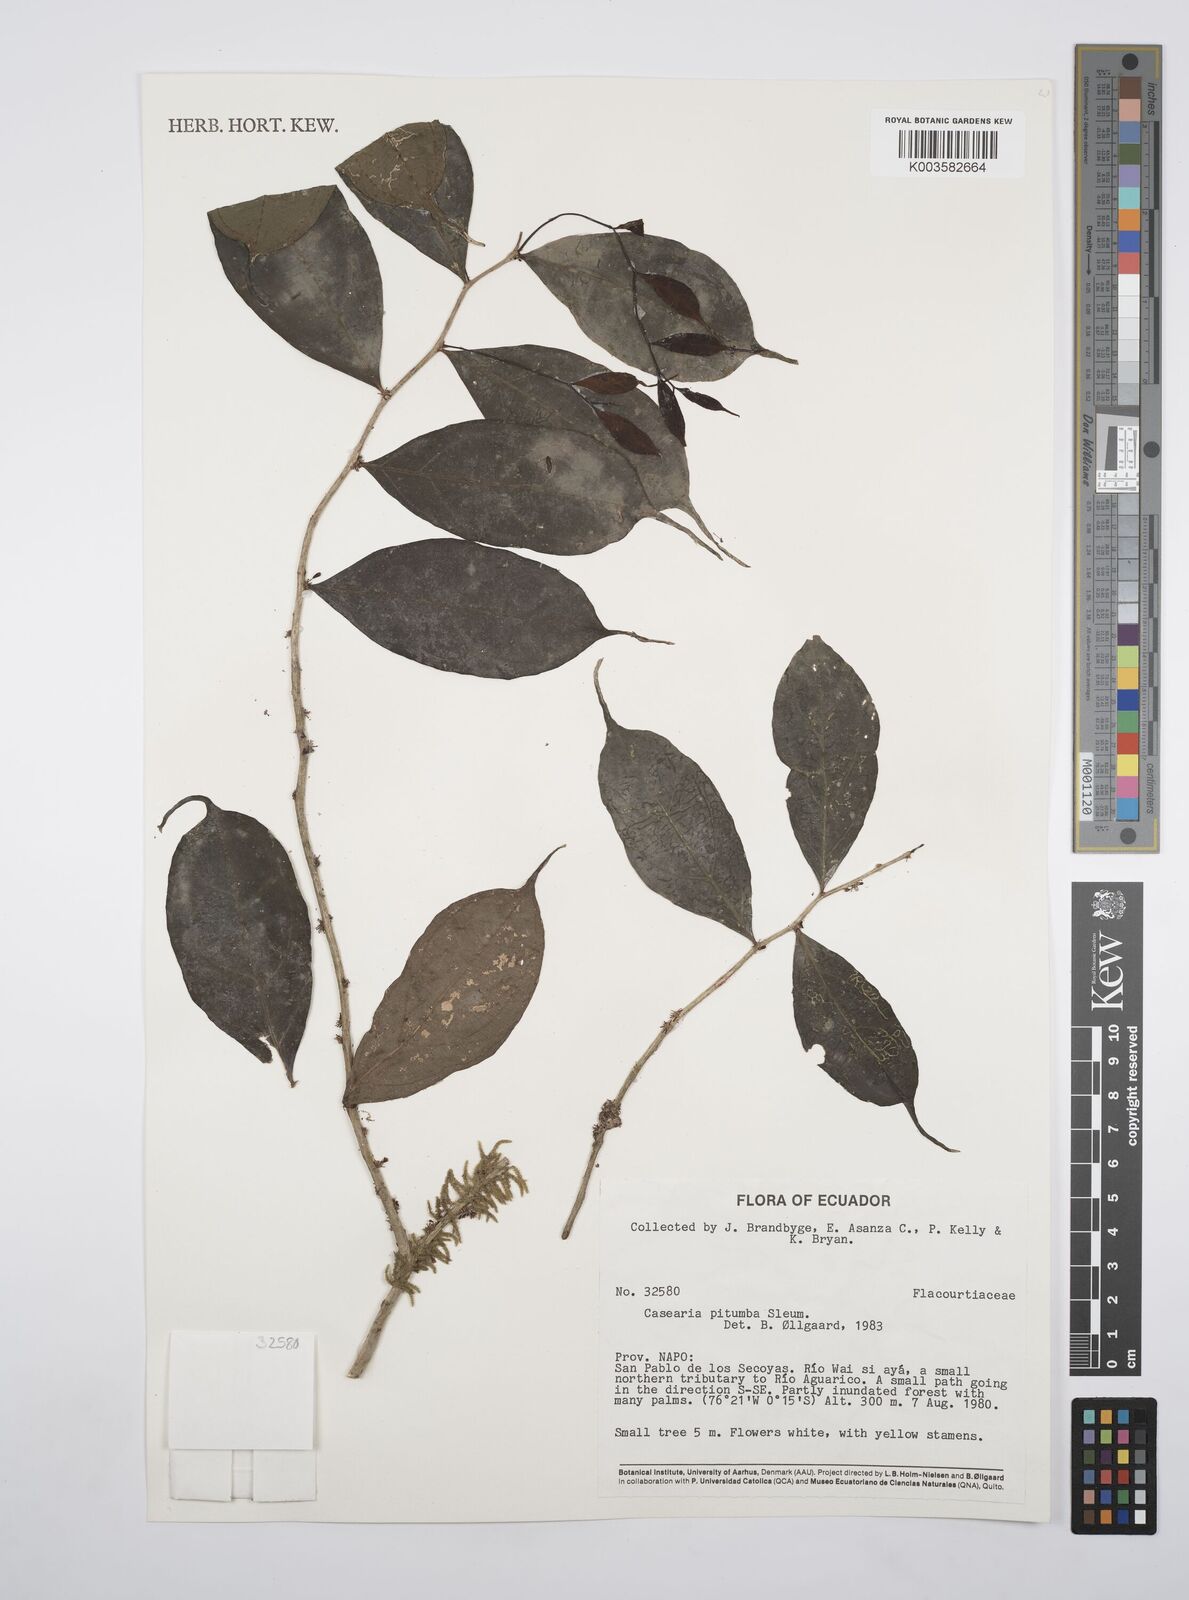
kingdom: Plantae
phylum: Tracheophyta
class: Magnoliopsida
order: Malpighiales
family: Salicaceae
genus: Casearia
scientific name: Casearia pitumba
